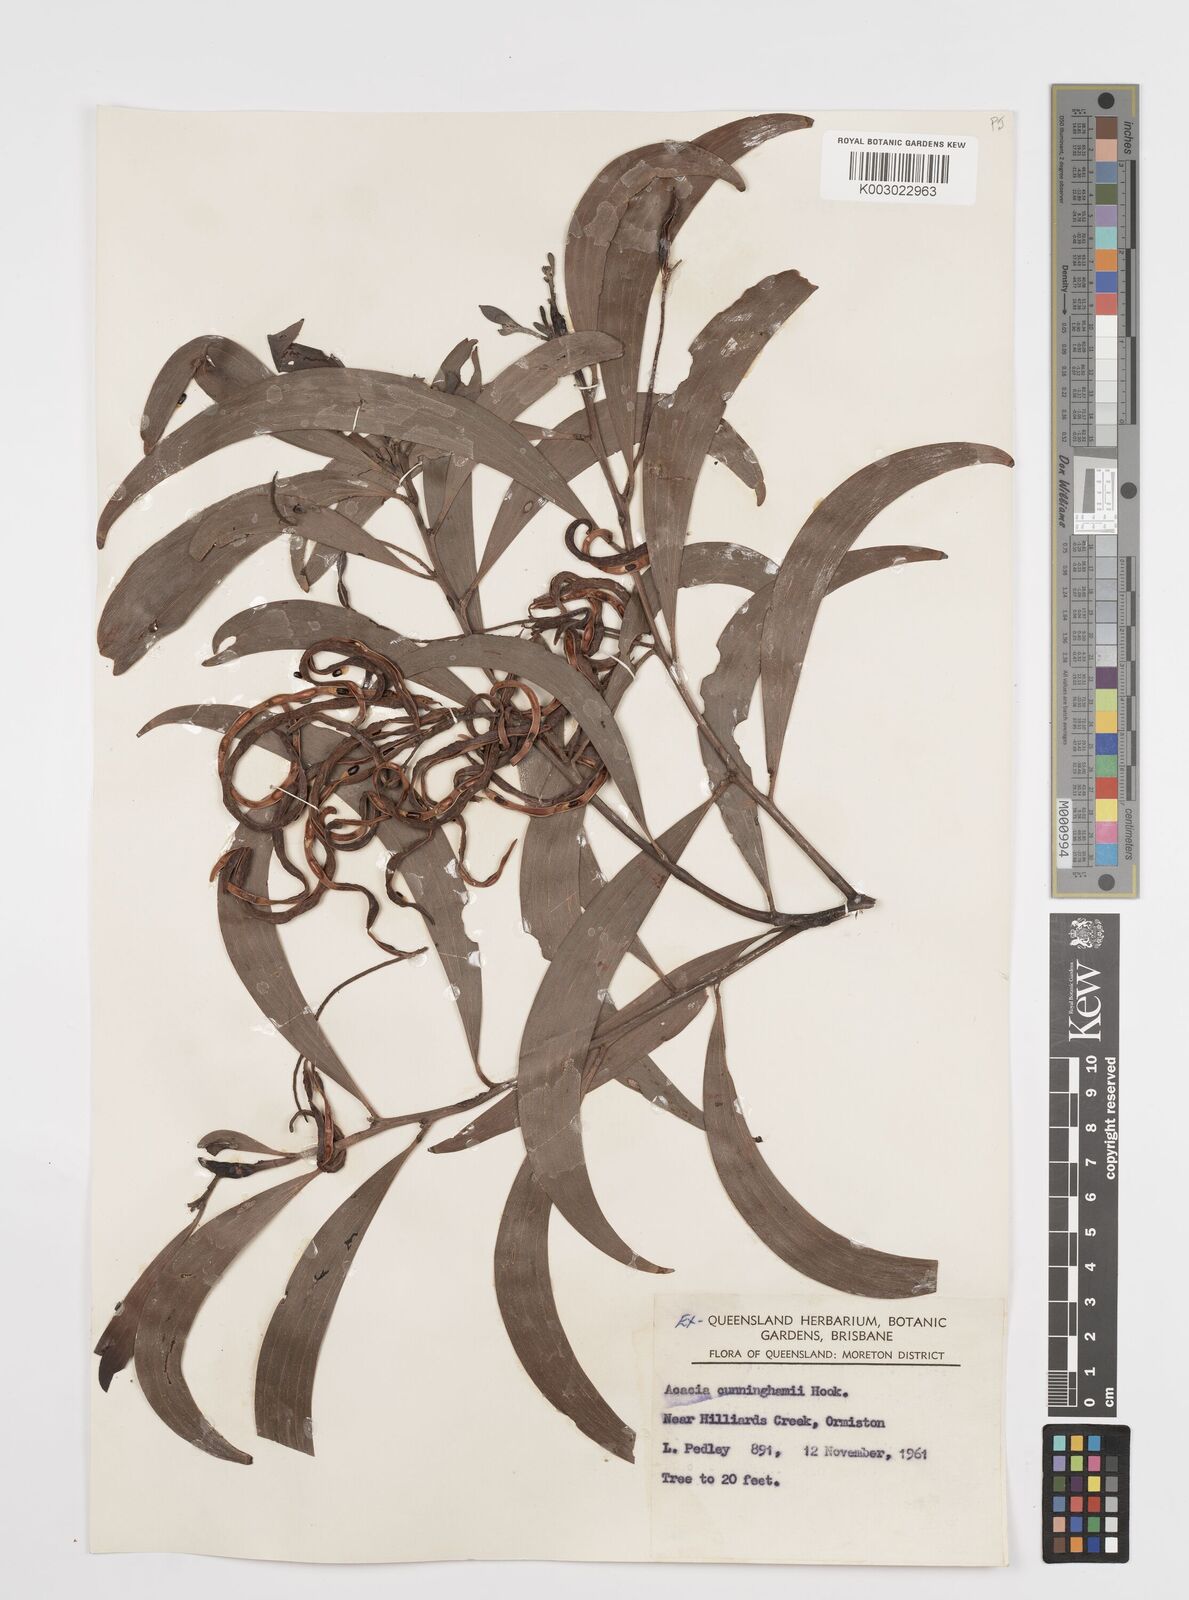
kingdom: Plantae
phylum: Tracheophyta
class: Magnoliopsida
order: Fabales
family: Fabaceae
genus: Acacia
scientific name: Acacia longispicata
